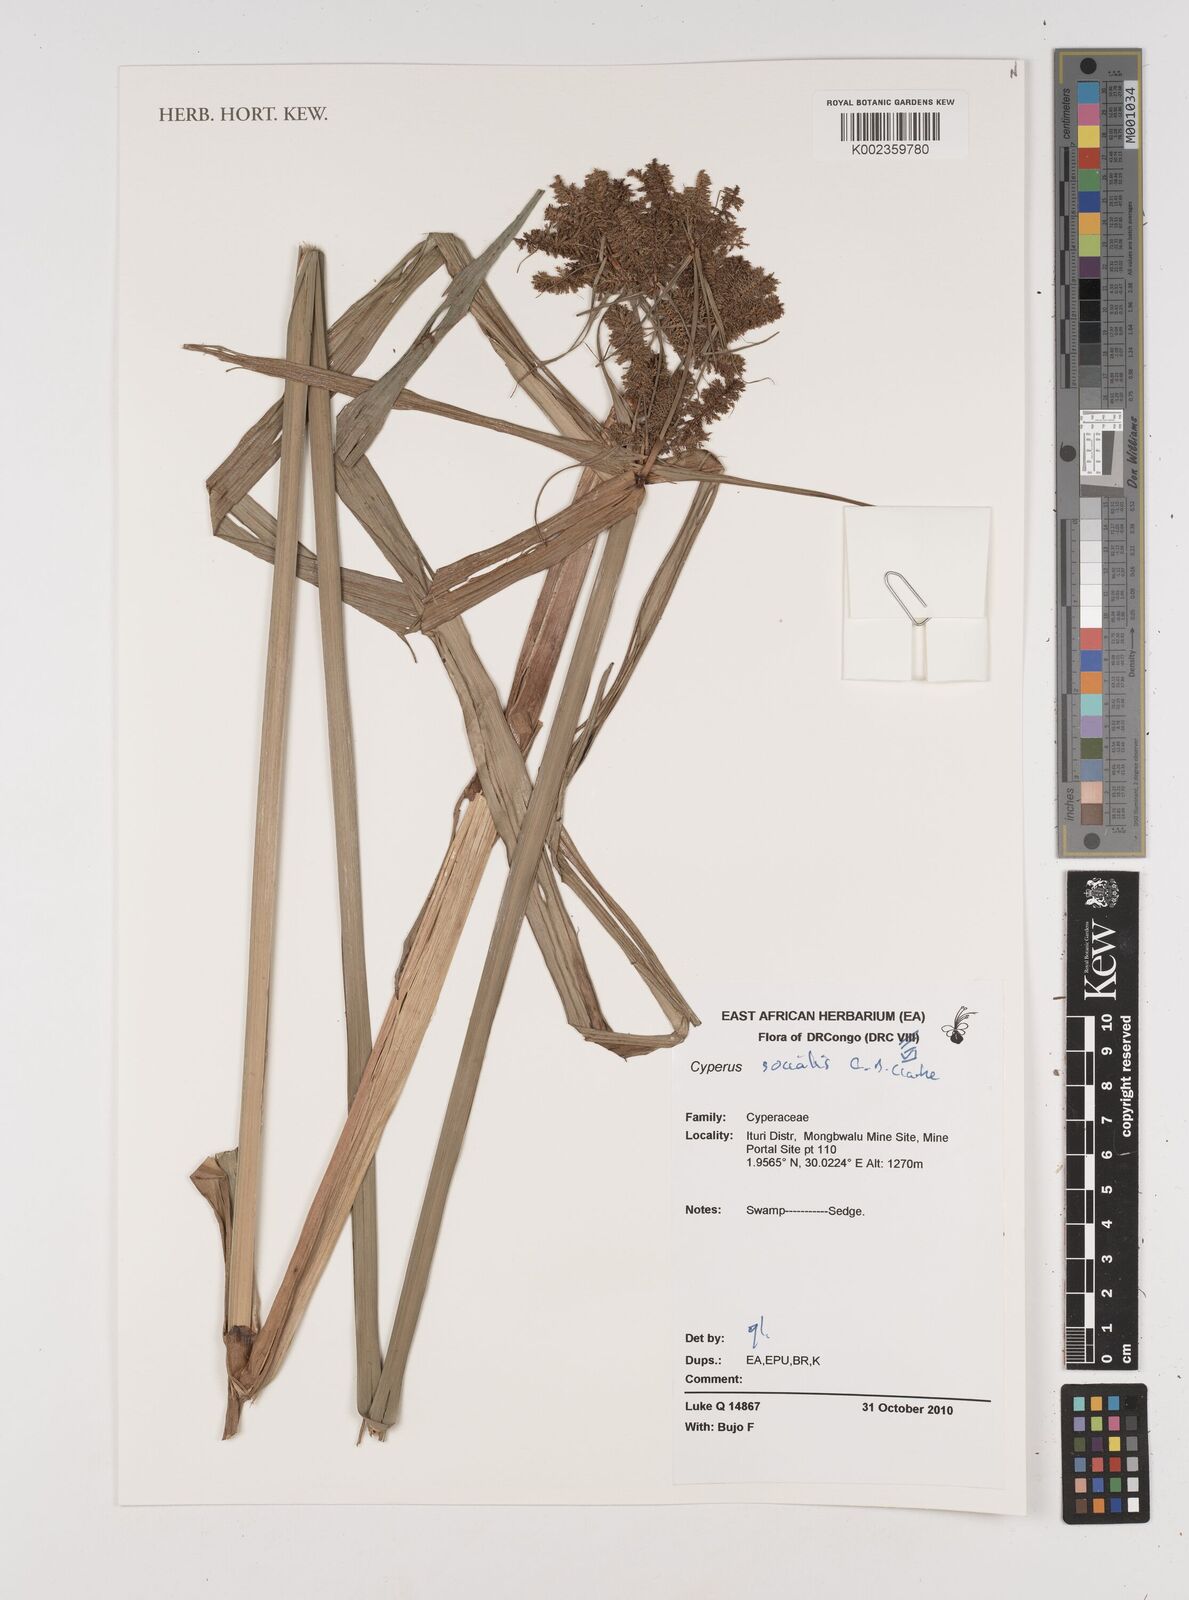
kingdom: Plantae
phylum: Tracheophyta
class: Liliopsida
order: Poales
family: Cyperaceae
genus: Cyperus
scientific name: Cyperus pseudopilosus
